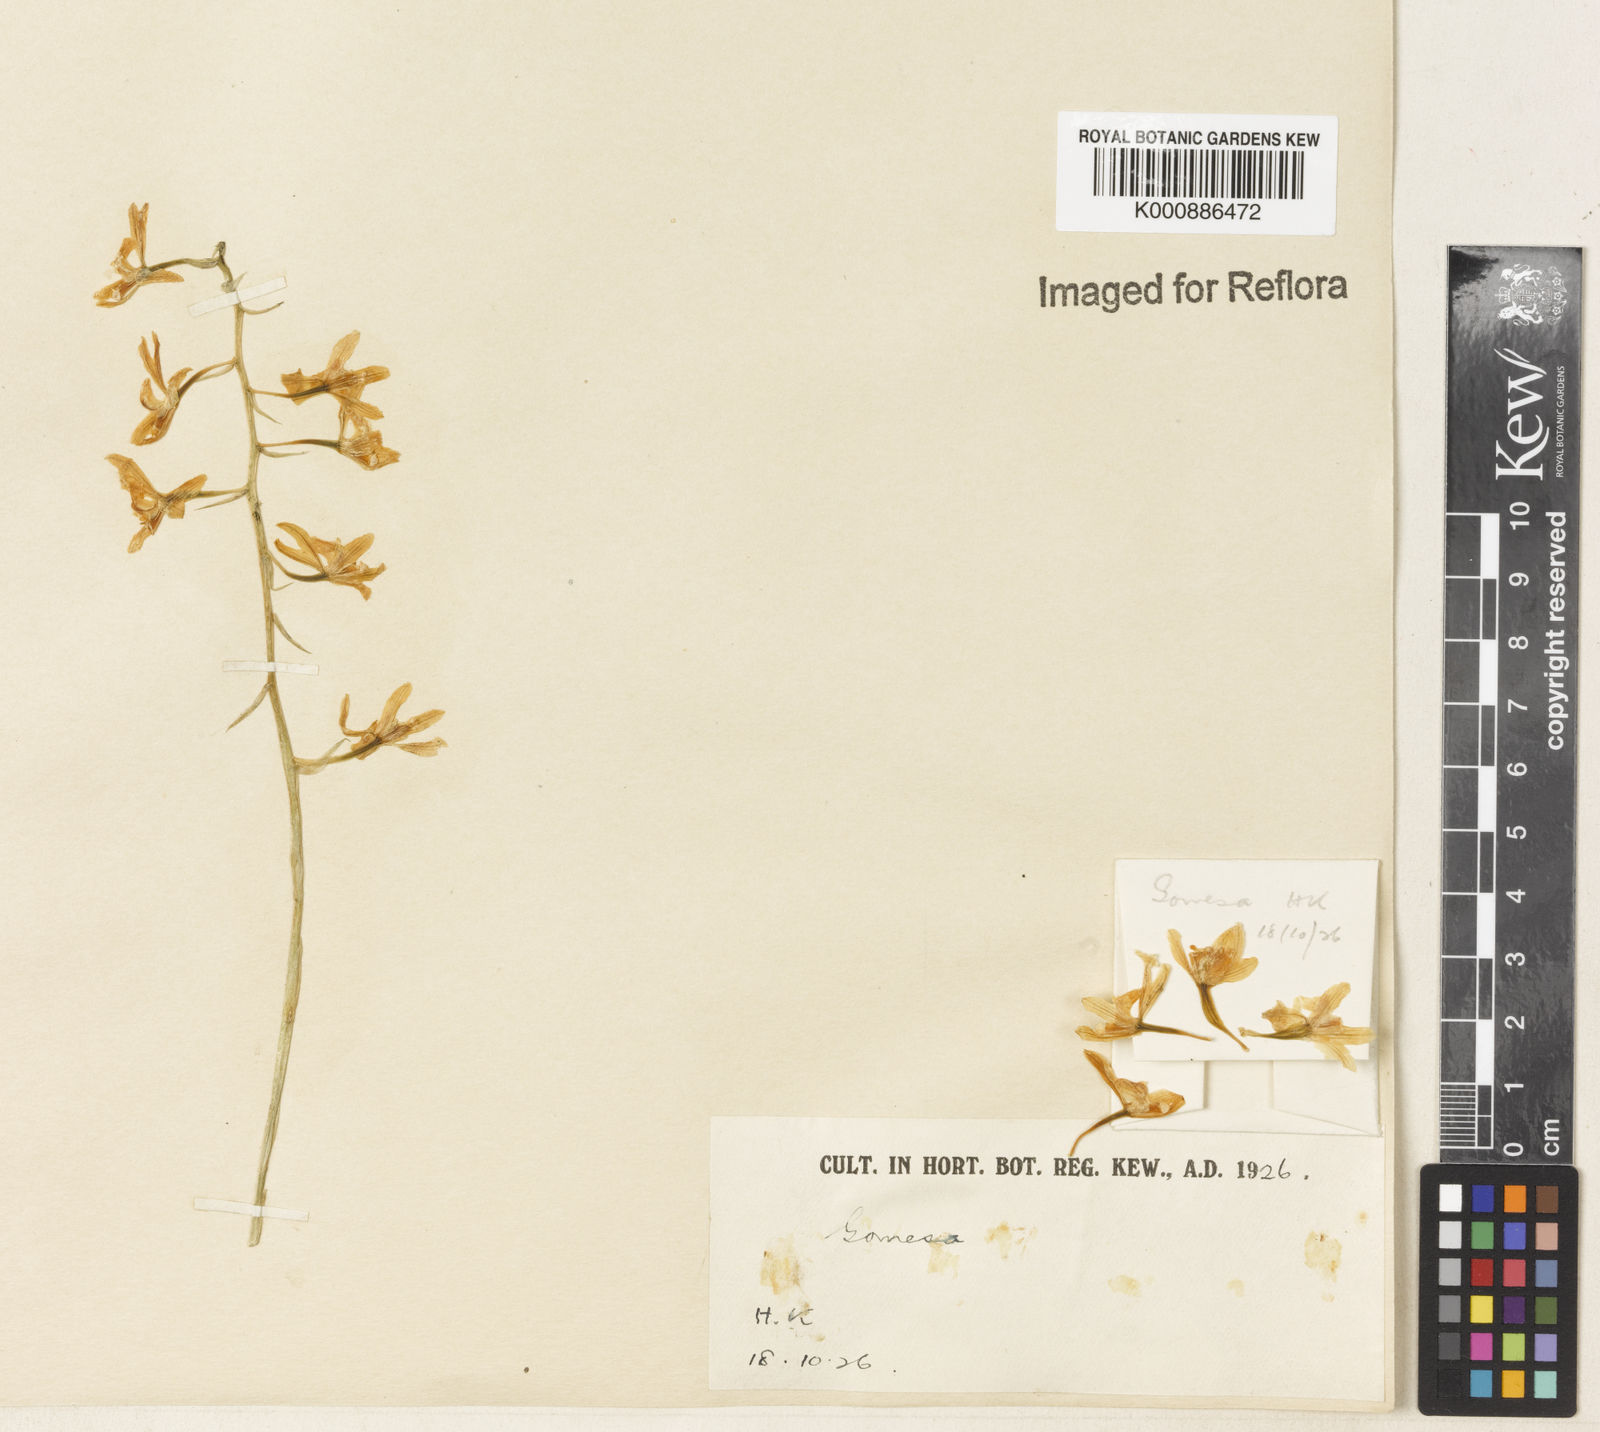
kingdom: Plantae
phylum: Tracheophyta
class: Liliopsida
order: Asparagales
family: Orchidaceae
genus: Gomesa
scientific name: Gomesa recurva
